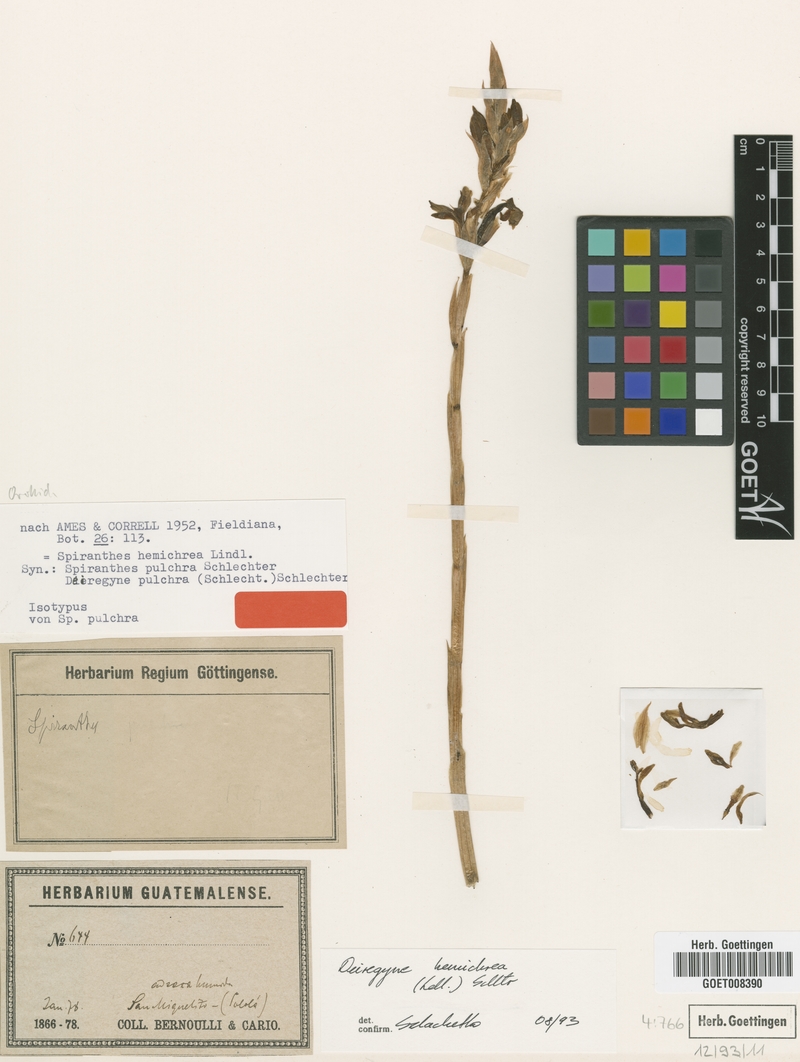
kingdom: Plantae
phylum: Tracheophyta
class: Liliopsida
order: Asparagales
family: Orchidaceae
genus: Aulosepalum
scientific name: Aulosepalum hemichrea
